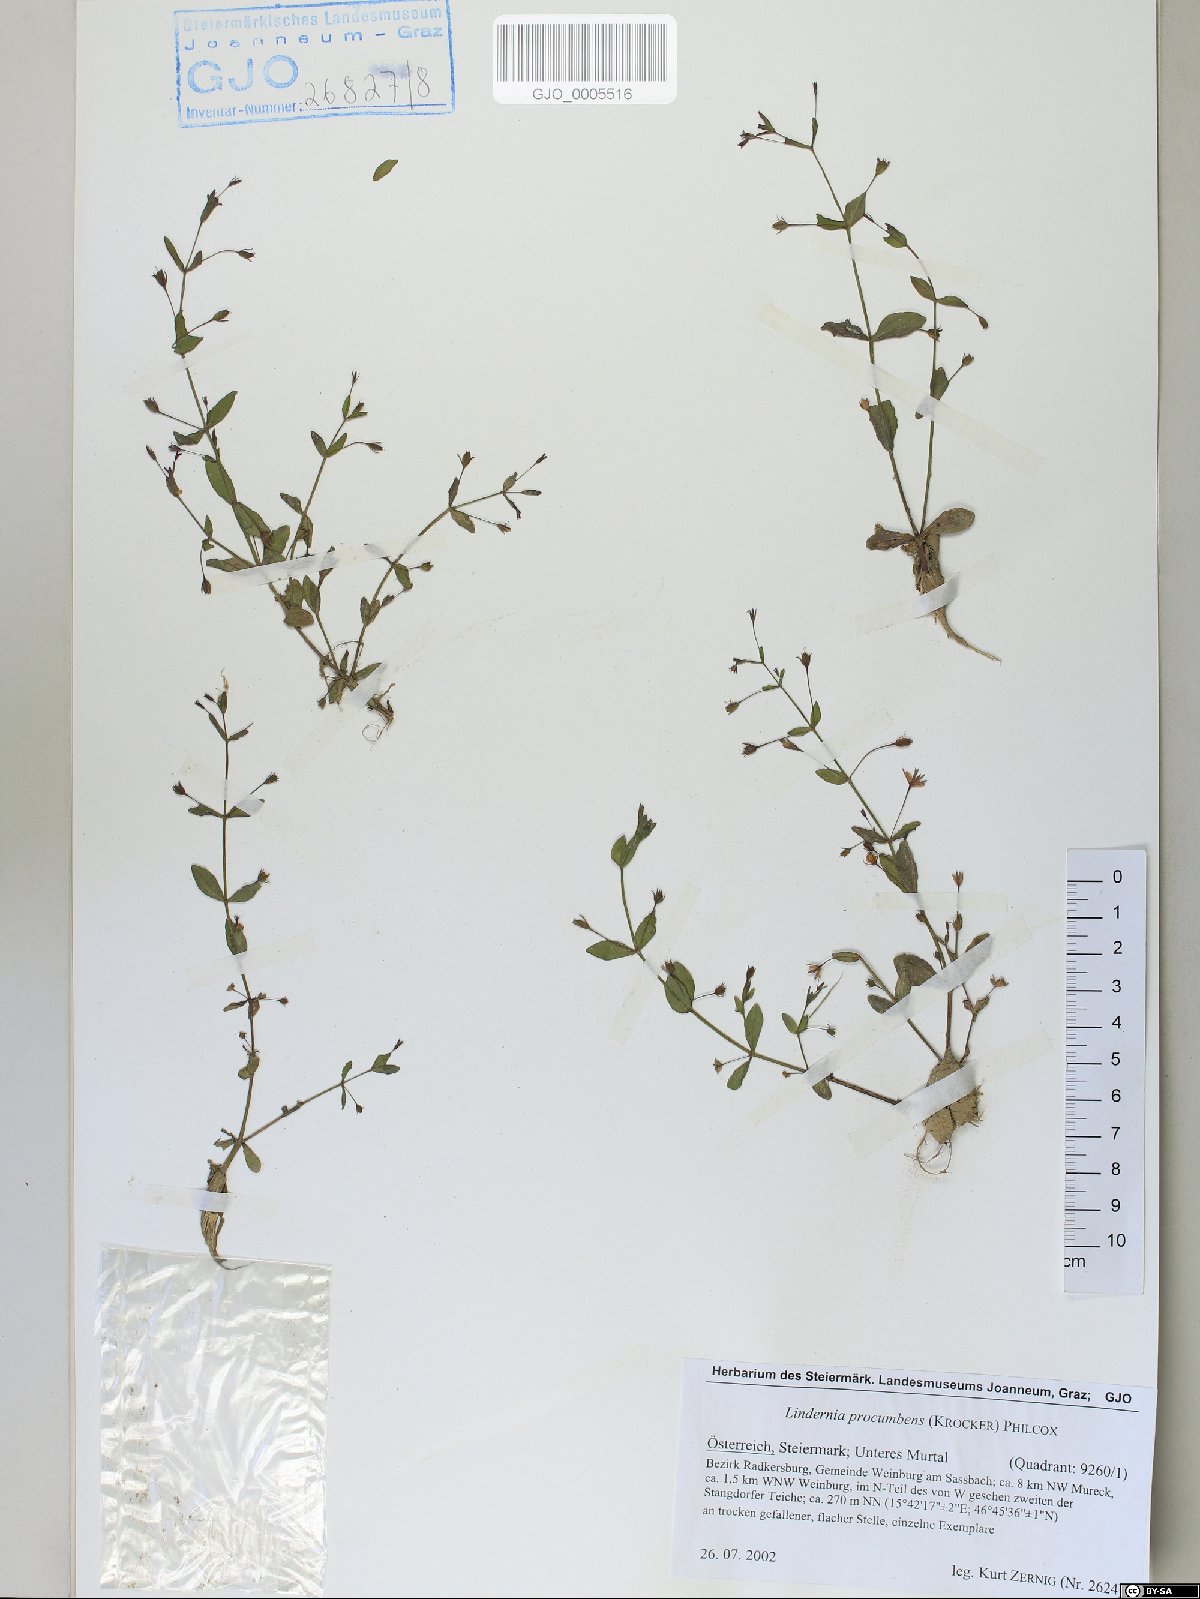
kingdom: Plantae
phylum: Tracheophyta
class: Magnoliopsida
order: Lamiales
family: Linderniaceae
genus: Lindernia
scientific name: Lindernia procumbens
